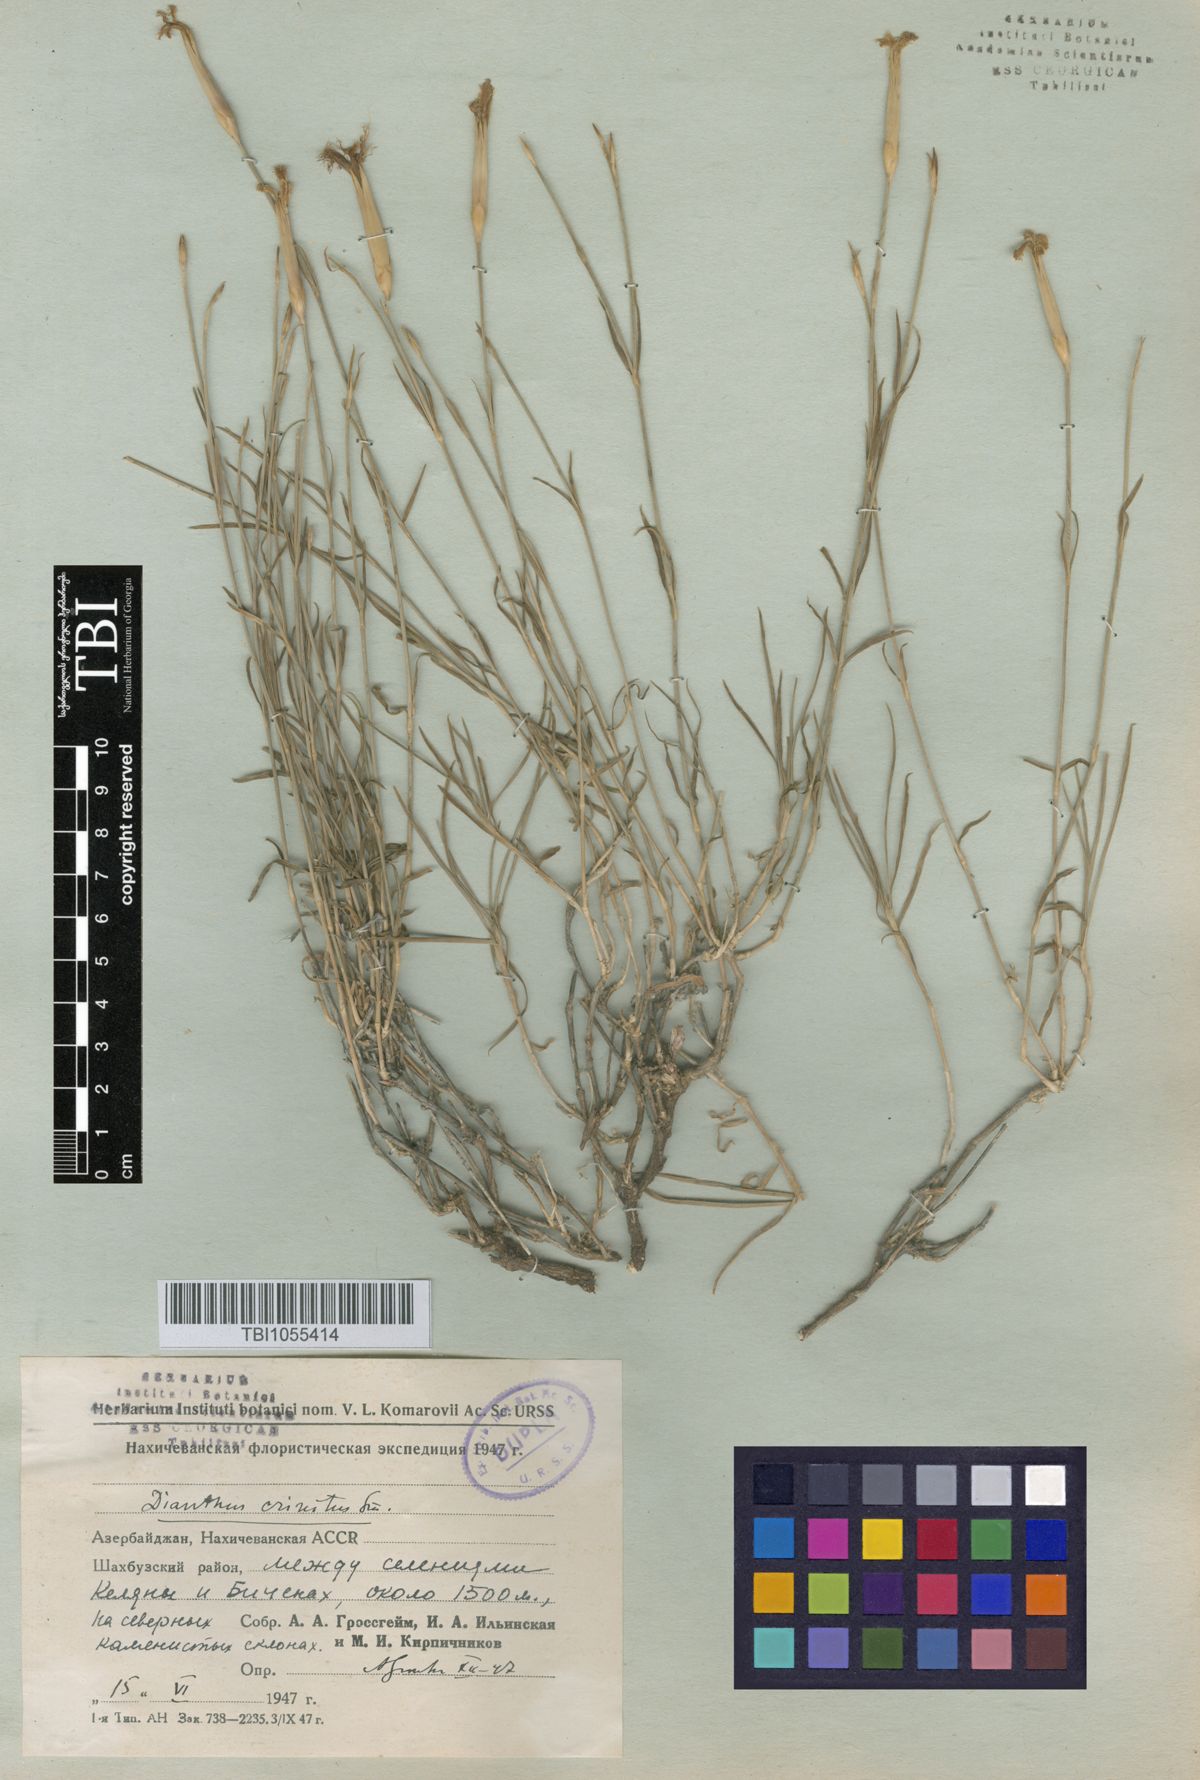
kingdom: Plantae
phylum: Tracheophyta
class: Magnoliopsida
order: Caryophyllales
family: Caryophyllaceae
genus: Dianthus
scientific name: Dianthus crinitus
